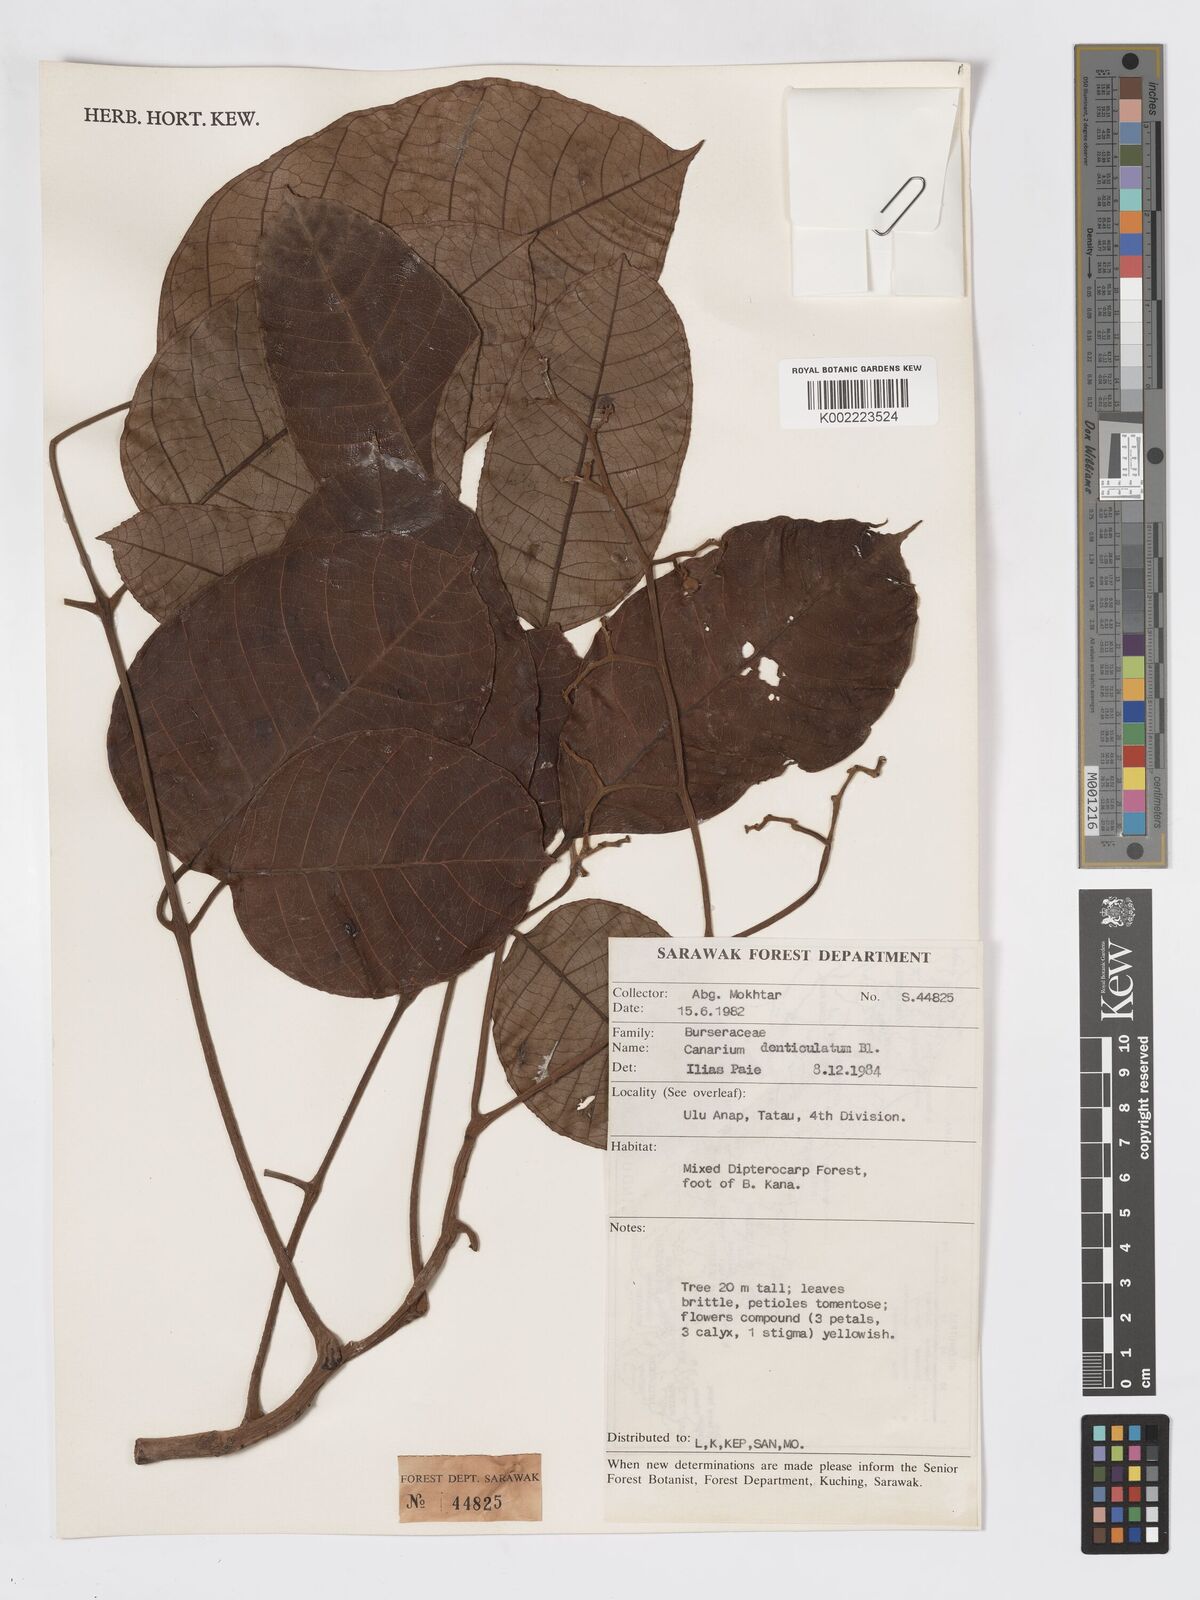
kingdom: Plantae
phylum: Tracheophyta
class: Magnoliopsida
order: Sapindales
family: Burseraceae
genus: Canarium
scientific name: Canarium denticulatum
